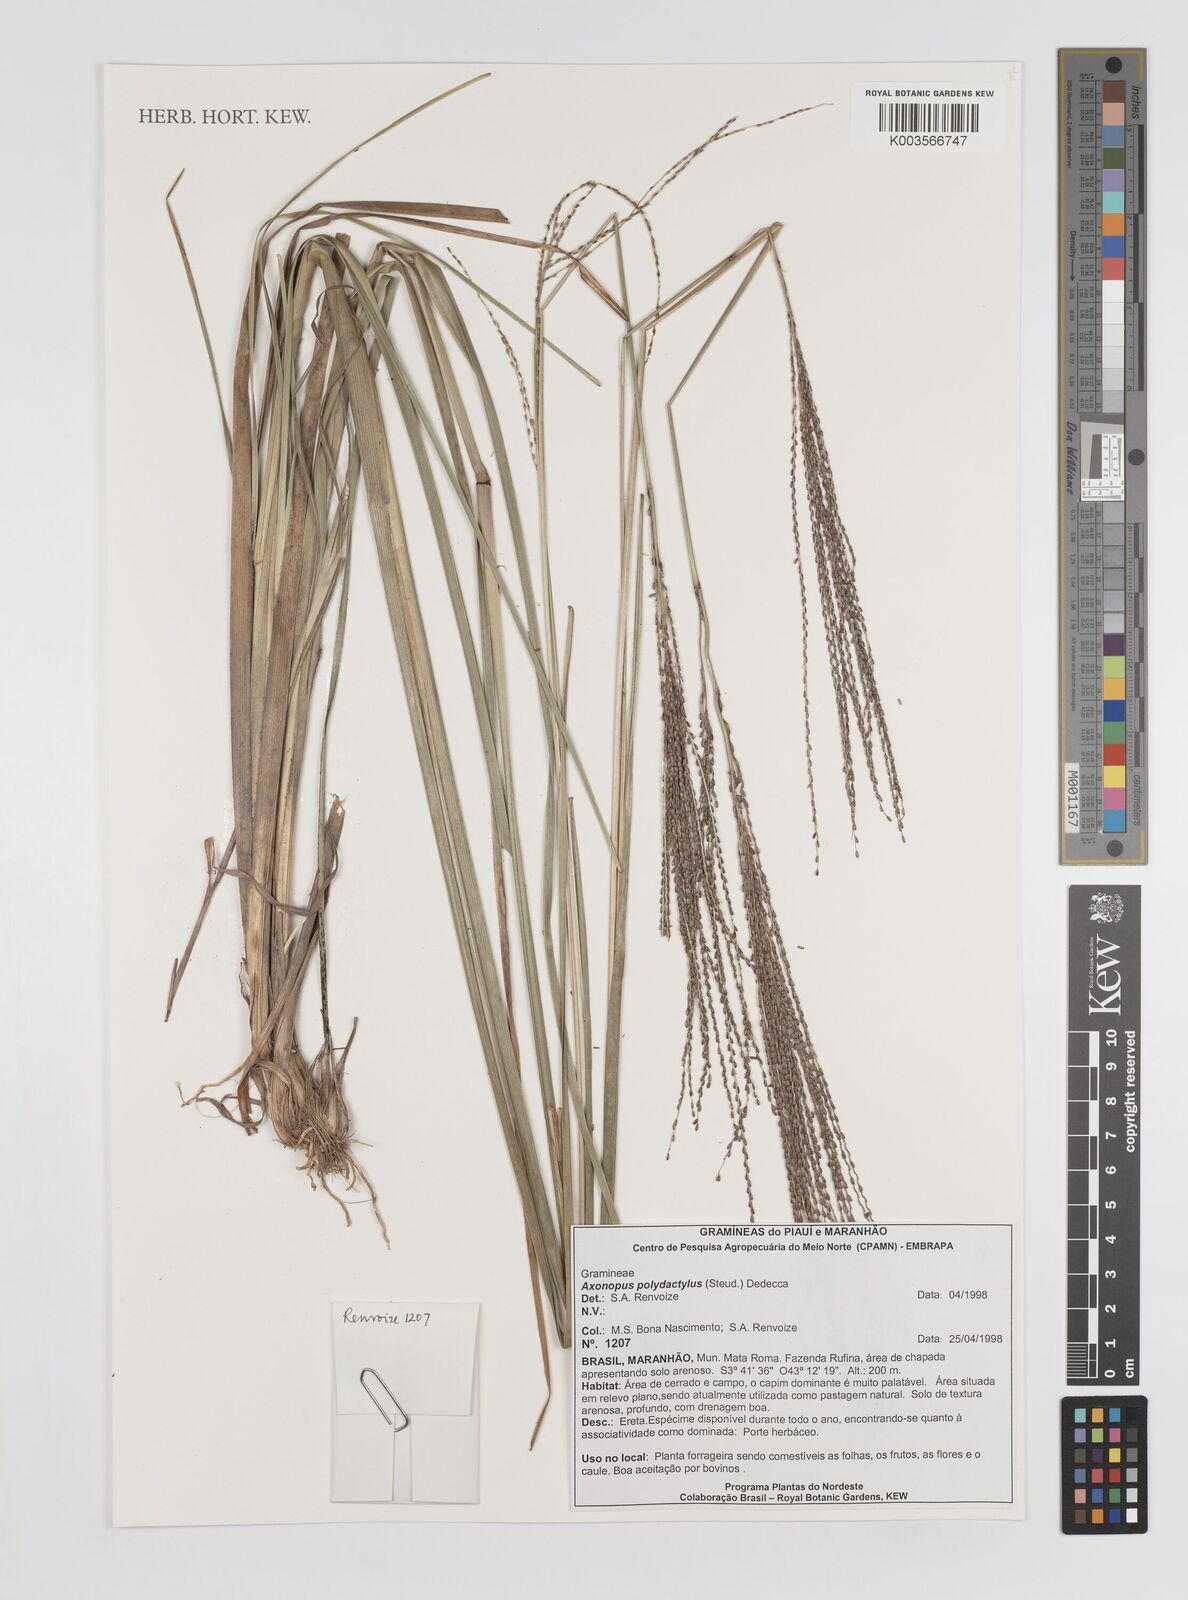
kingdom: Plantae
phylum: Tracheophyta
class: Liliopsida
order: Poales
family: Poaceae
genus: Axonopus
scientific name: Axonopus polydactylus
